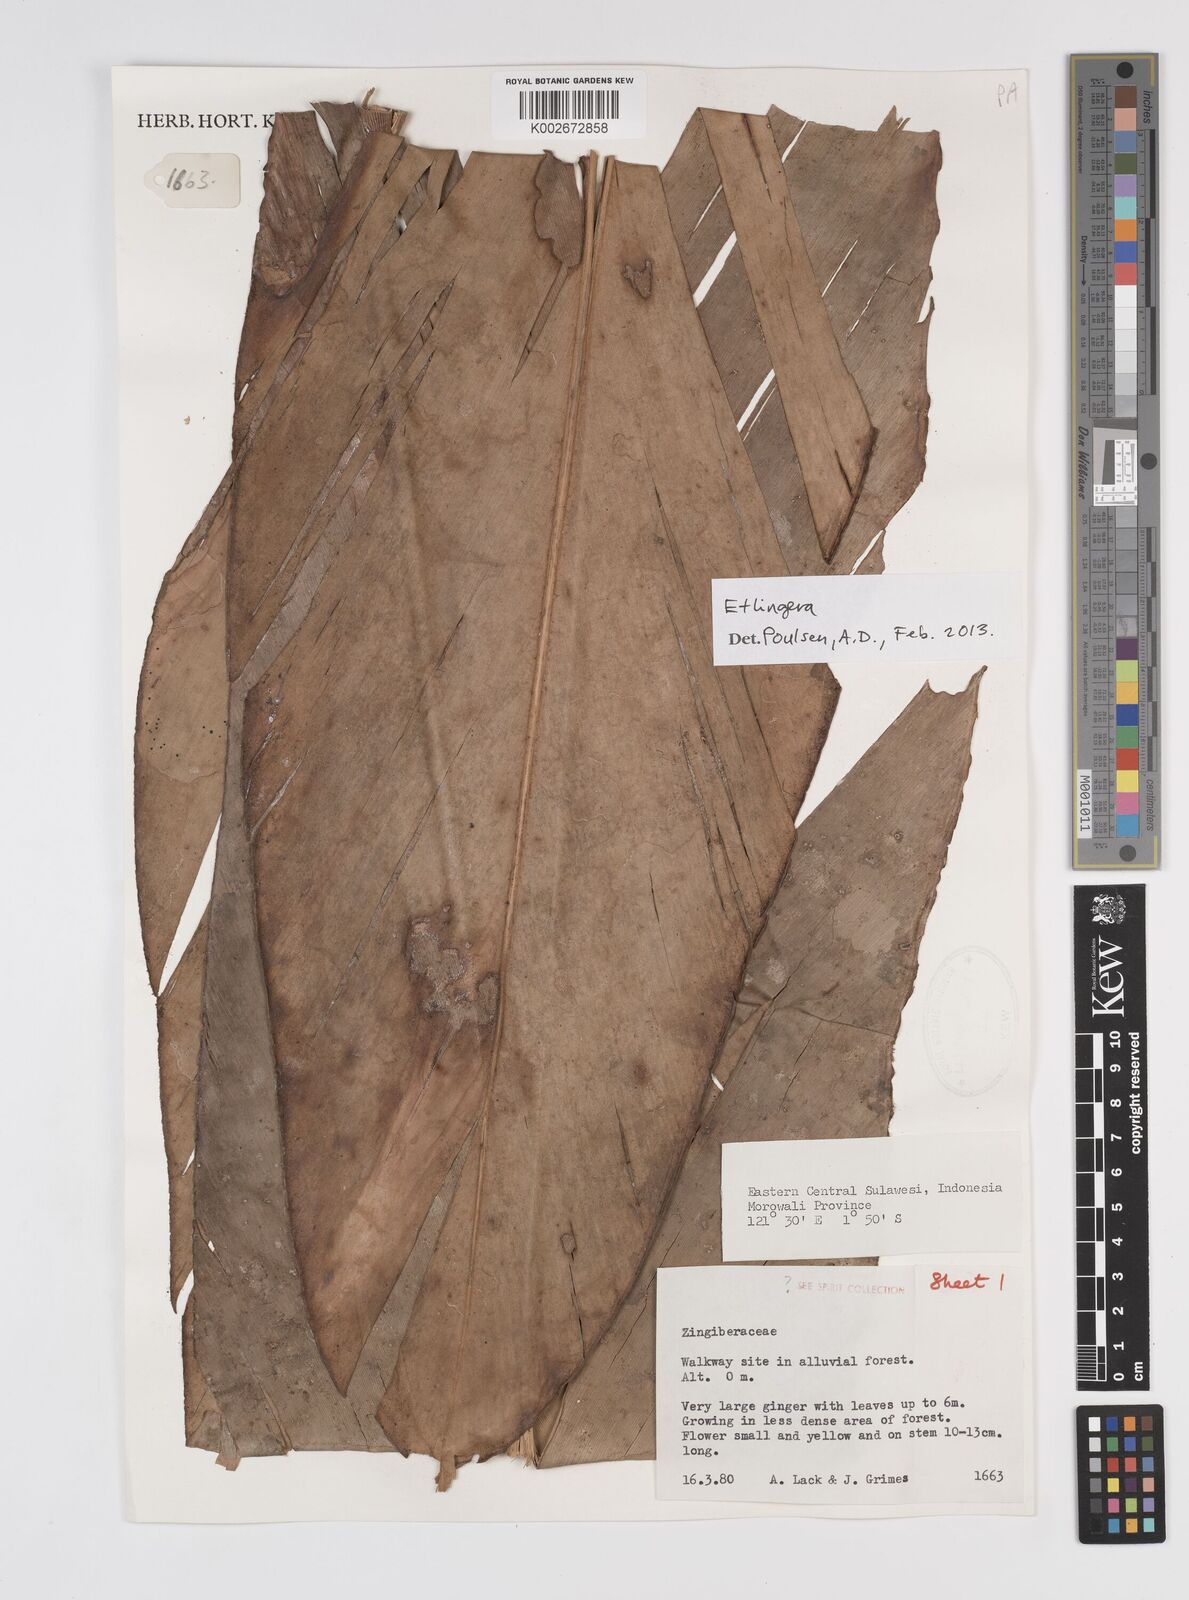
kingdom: Plantae
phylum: Tracheophyta
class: Liliopsida
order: Zingiberales
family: Zingiberaceae
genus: Etlingera
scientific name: Etlingera
